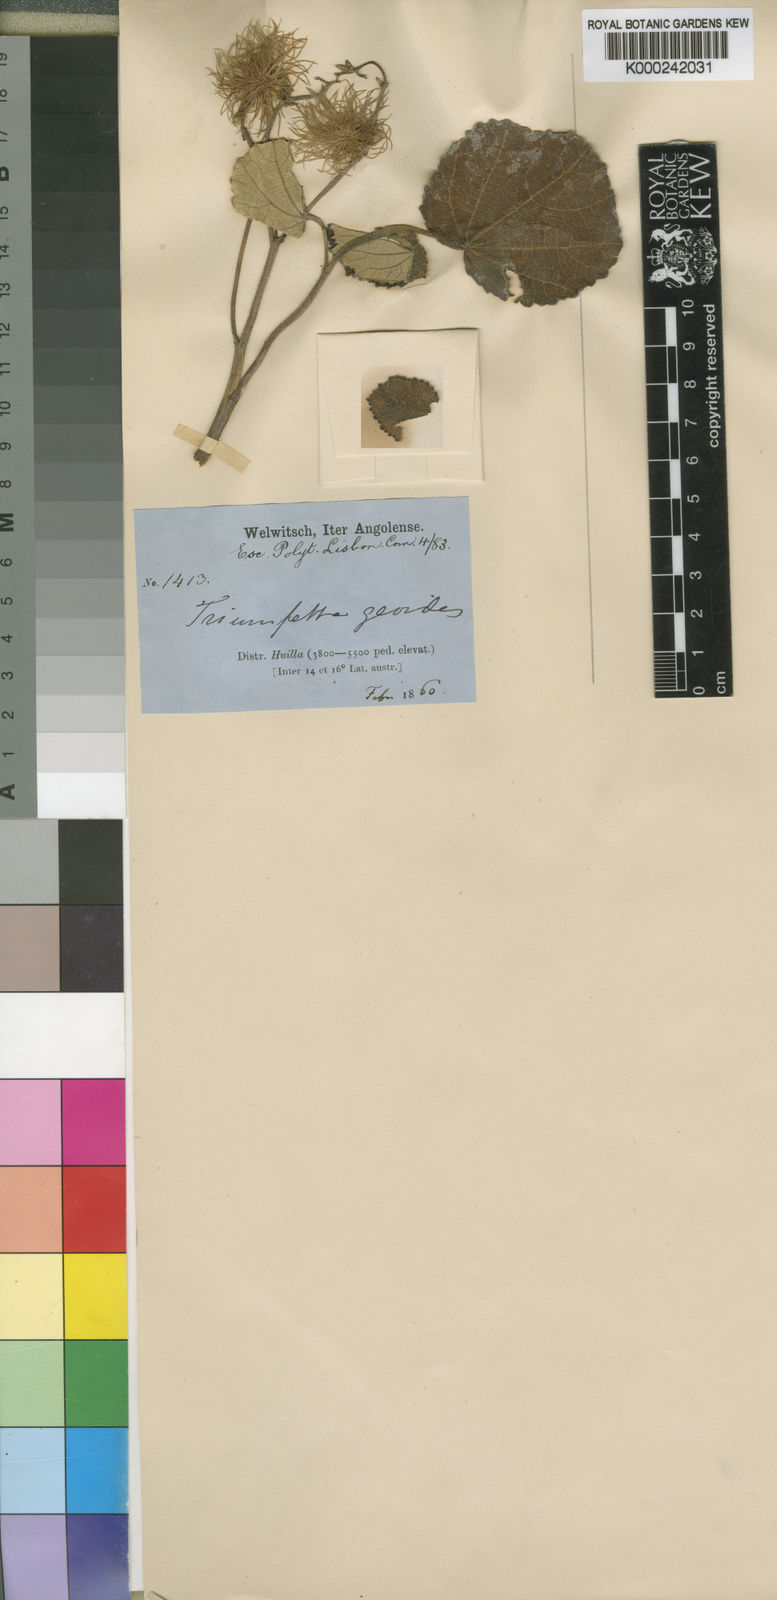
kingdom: Plantae
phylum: Tracheophyta
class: Magnoliopsida
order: Malvales
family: Malvaceae
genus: Triumfetta
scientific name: Triumfetta geoides
